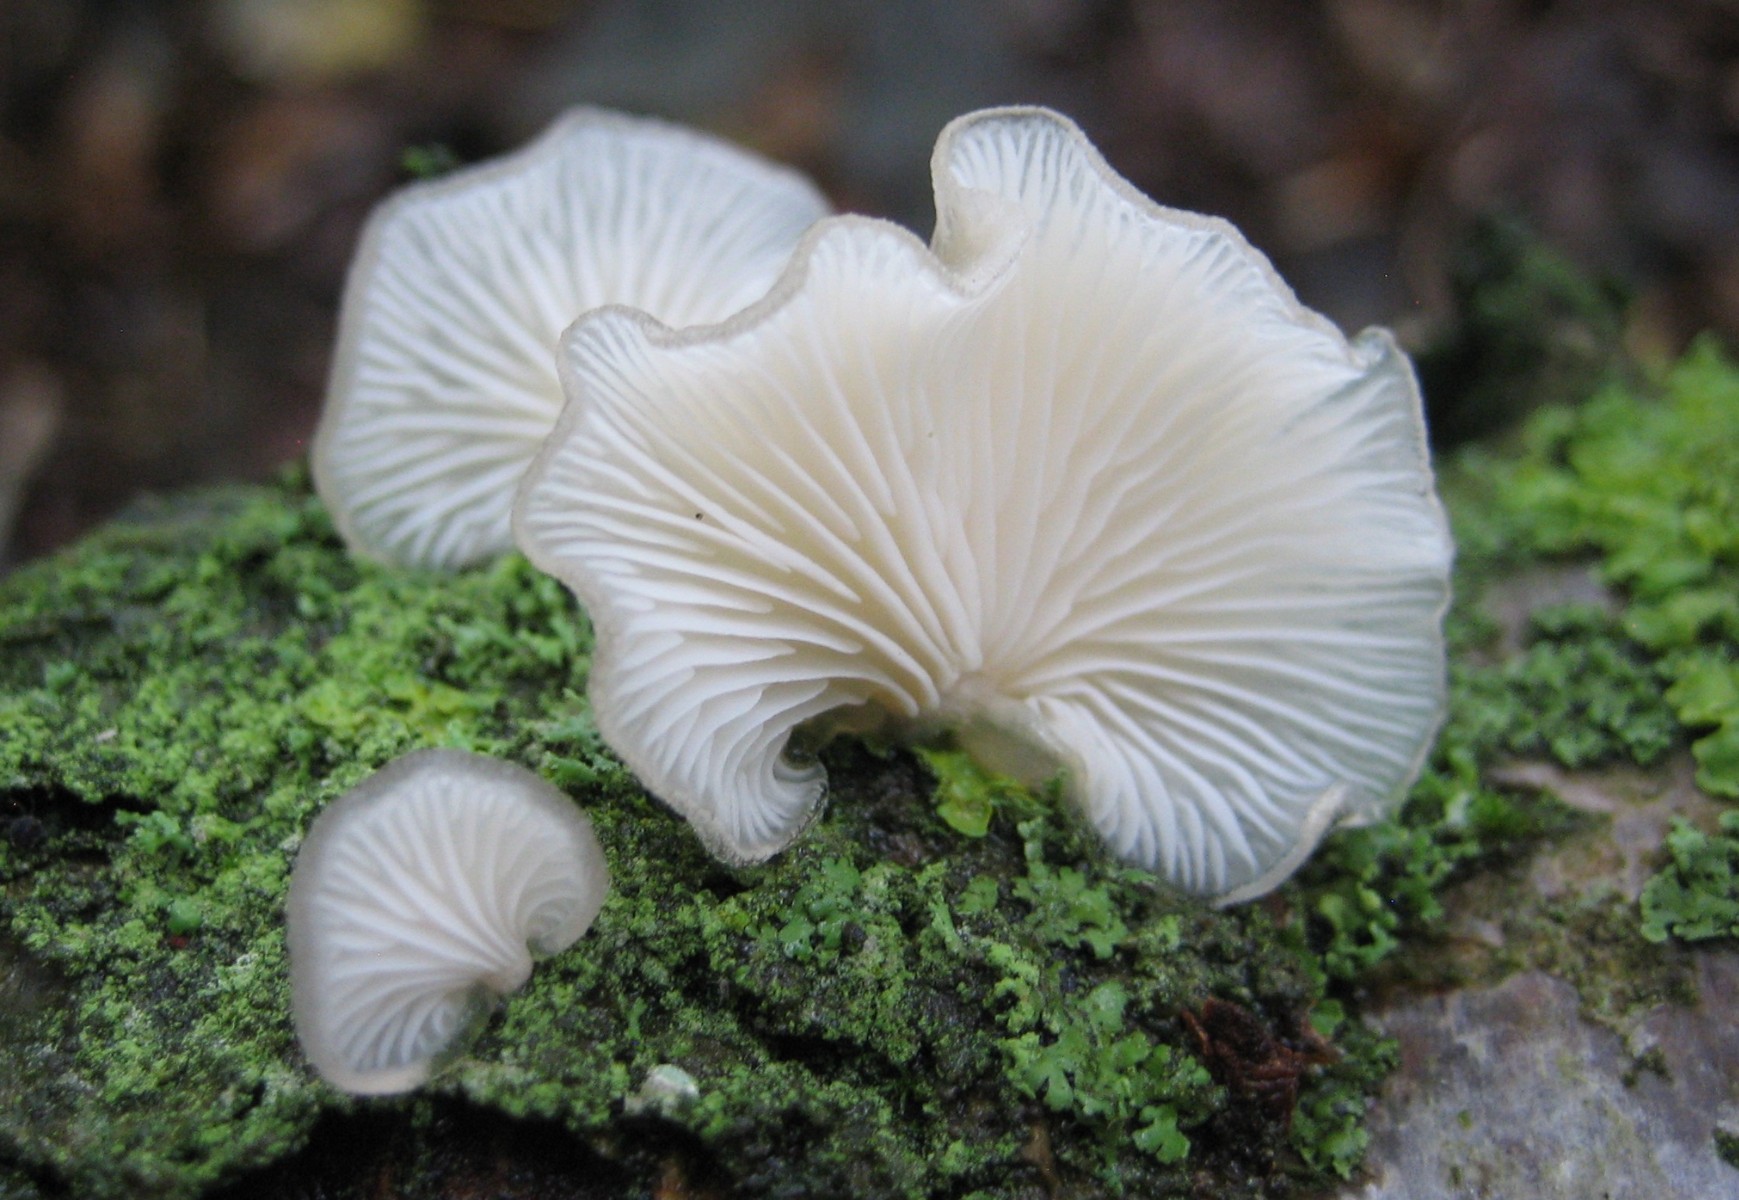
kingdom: Fungi
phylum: Basidiomycota
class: Agaricomycetes
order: Agaricales
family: Pleurotaceae
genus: Hohenbuehelia
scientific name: Hohenbuehelia
